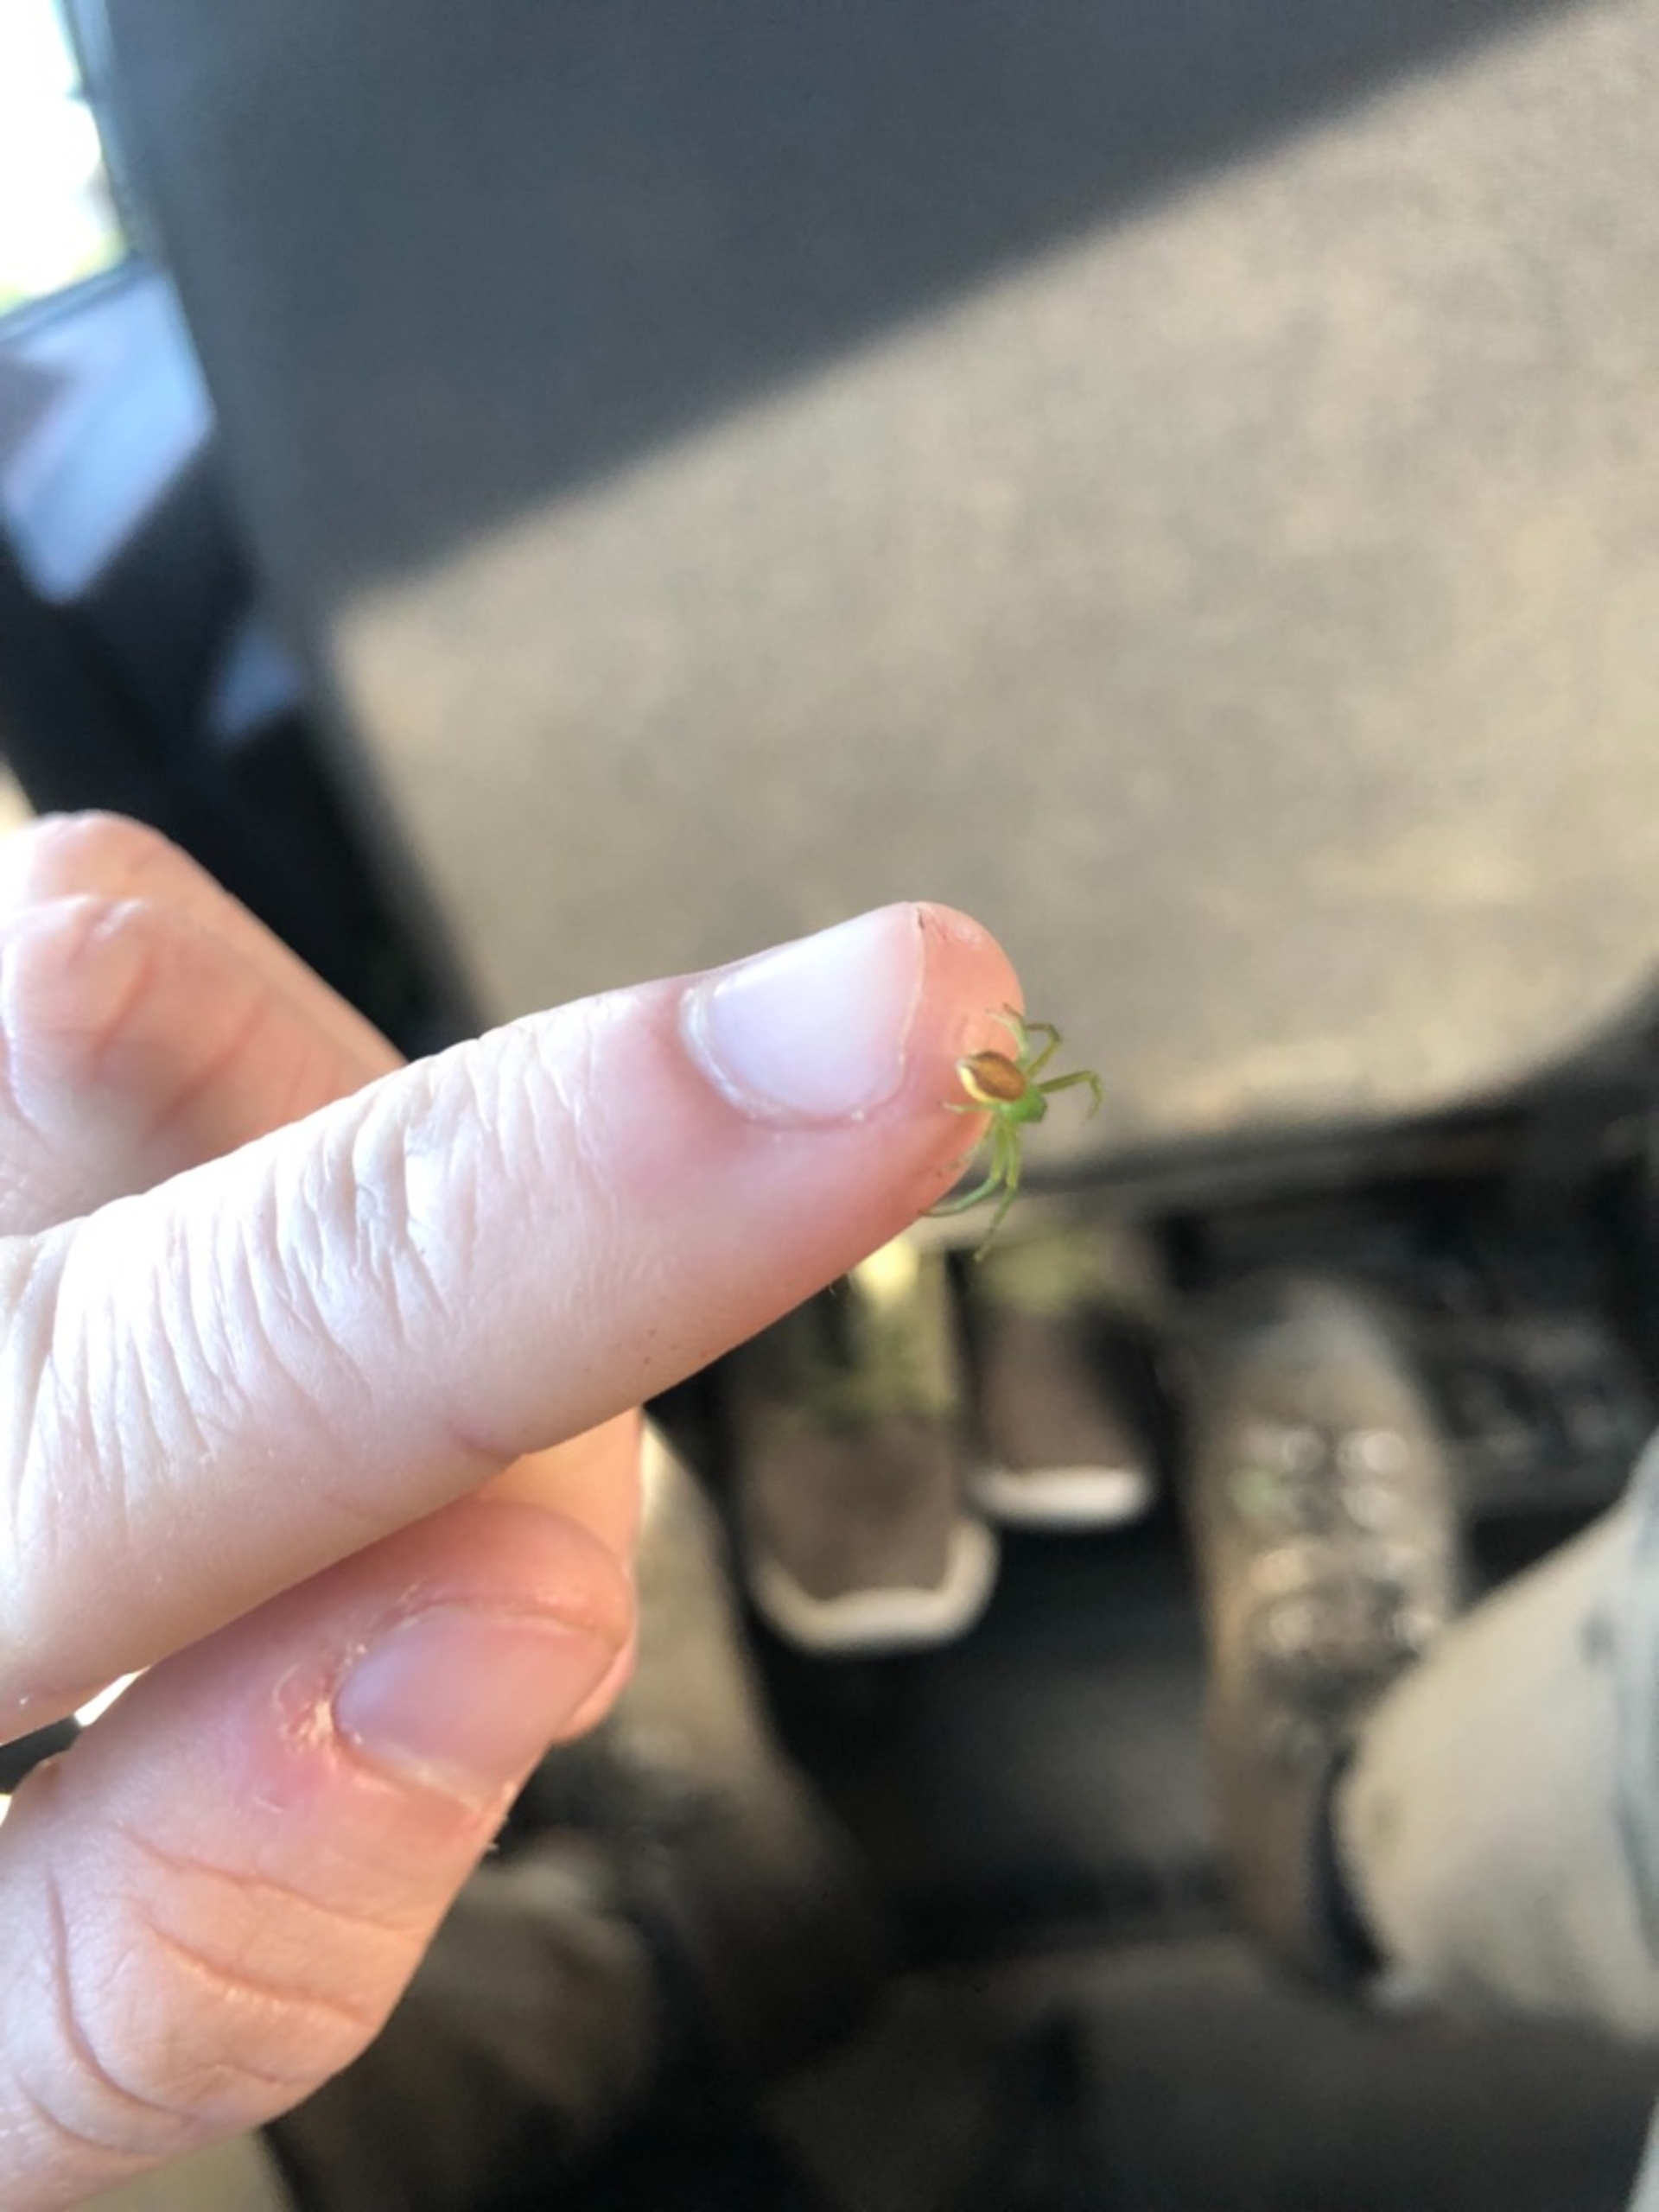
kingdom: Animalia
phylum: Arthropoda
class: Arachnida
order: Araneae
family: Thomisidae
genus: Diaea
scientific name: Diaea dorsata
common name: Grøn krabbeedderkop
